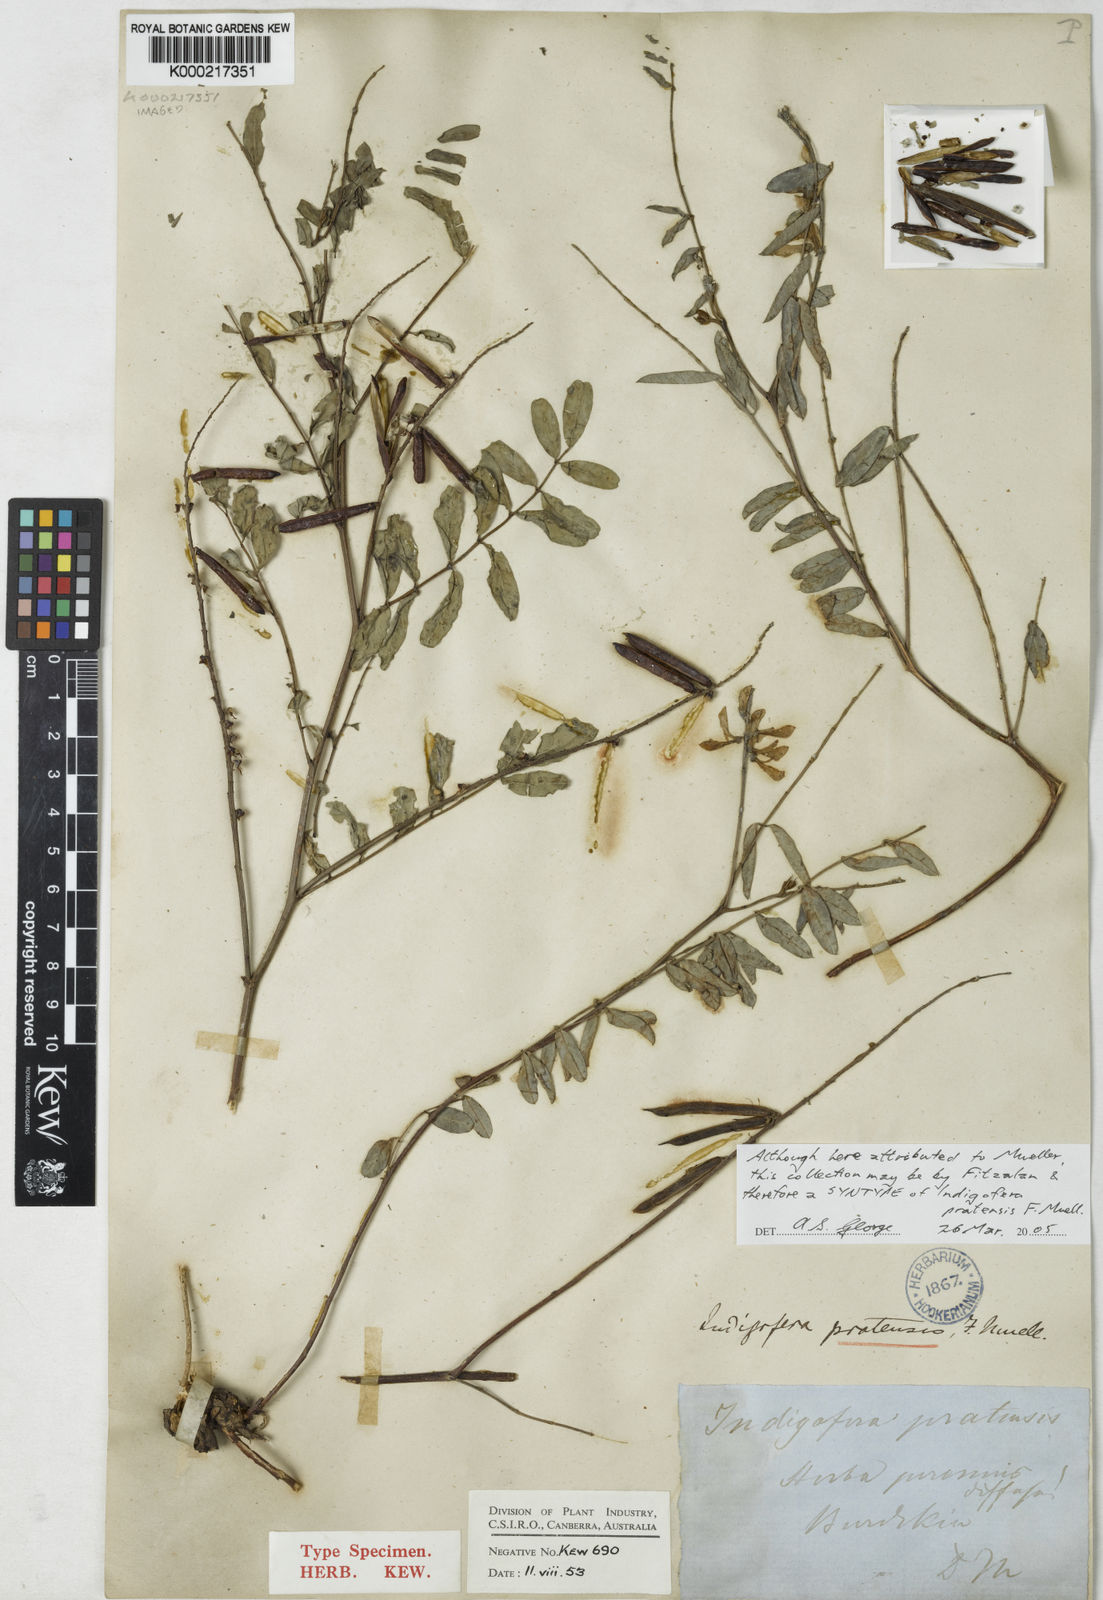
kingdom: Plantae
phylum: Tracheophyta
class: Magnoliopsida
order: Fabales
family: Fabaceae
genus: Indigofera
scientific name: Indigofera pratensis
